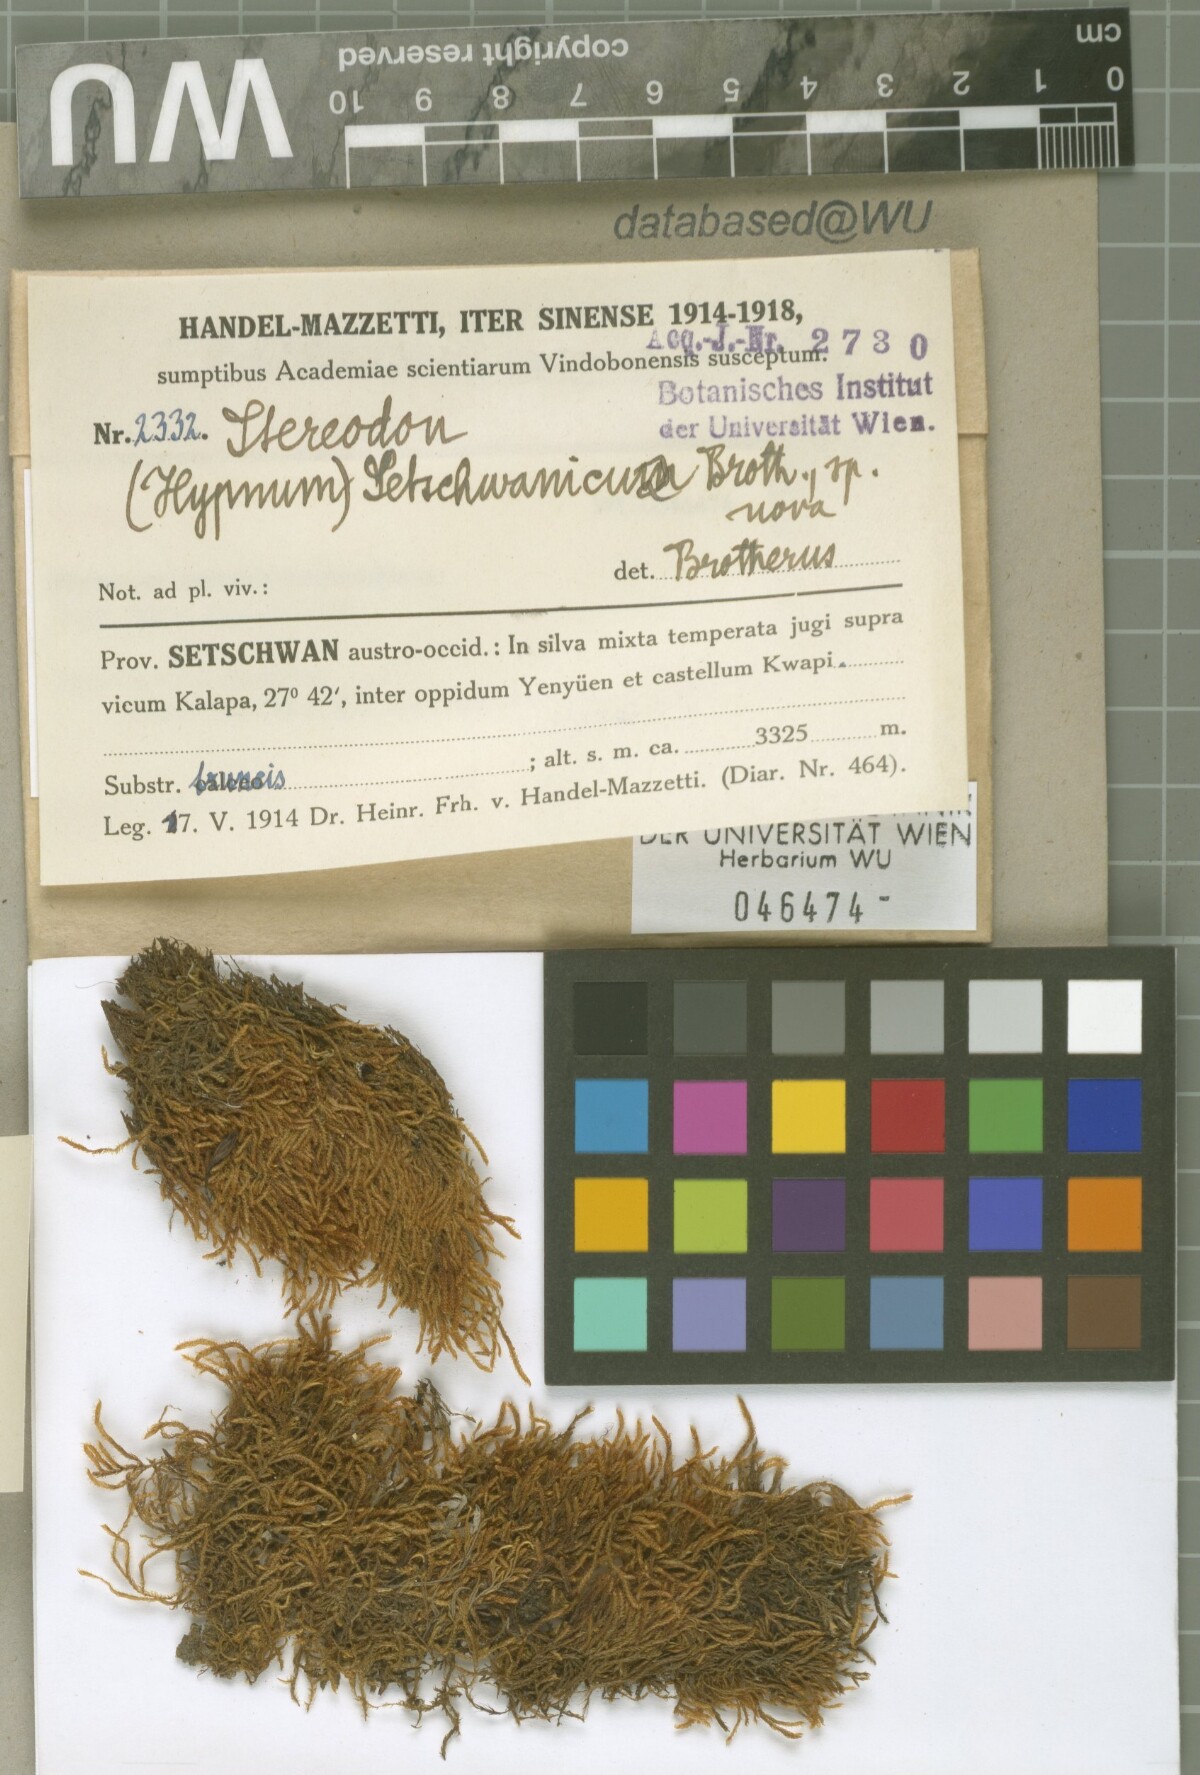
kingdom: Plantae
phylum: Bryophyta
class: Bryopsida
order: Hypnales
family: Hypnaceae
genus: Hypnum
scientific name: Hypnum setschwanicum
